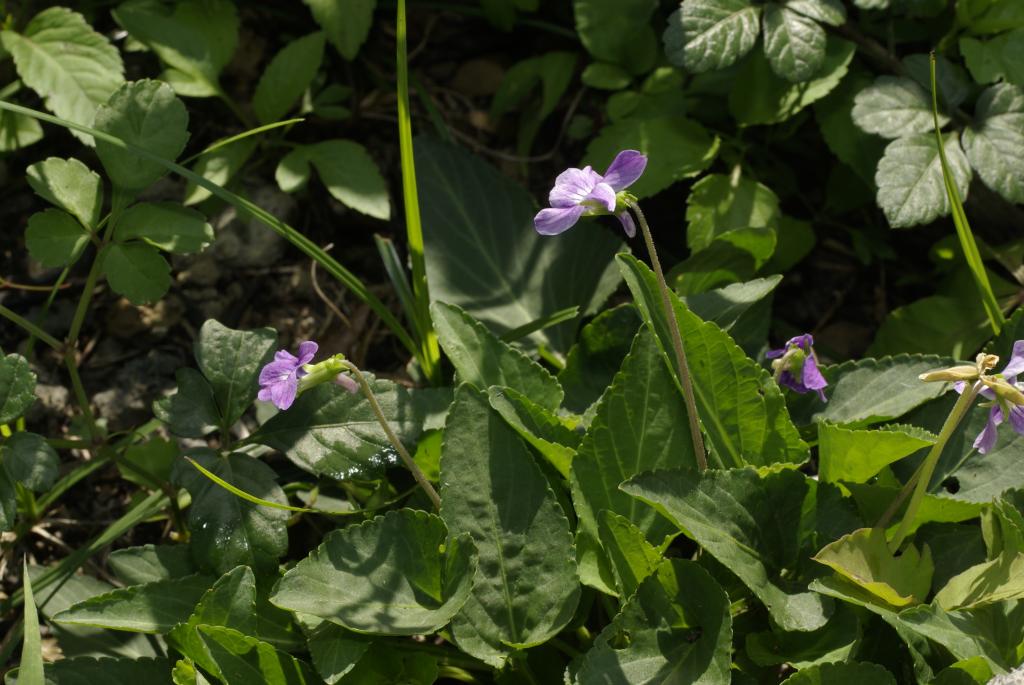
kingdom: Plantae
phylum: Tracheophyta
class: Magnoliopsida
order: Malpighiales
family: Violaceae
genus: Viola
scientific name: Viola inconspicua
